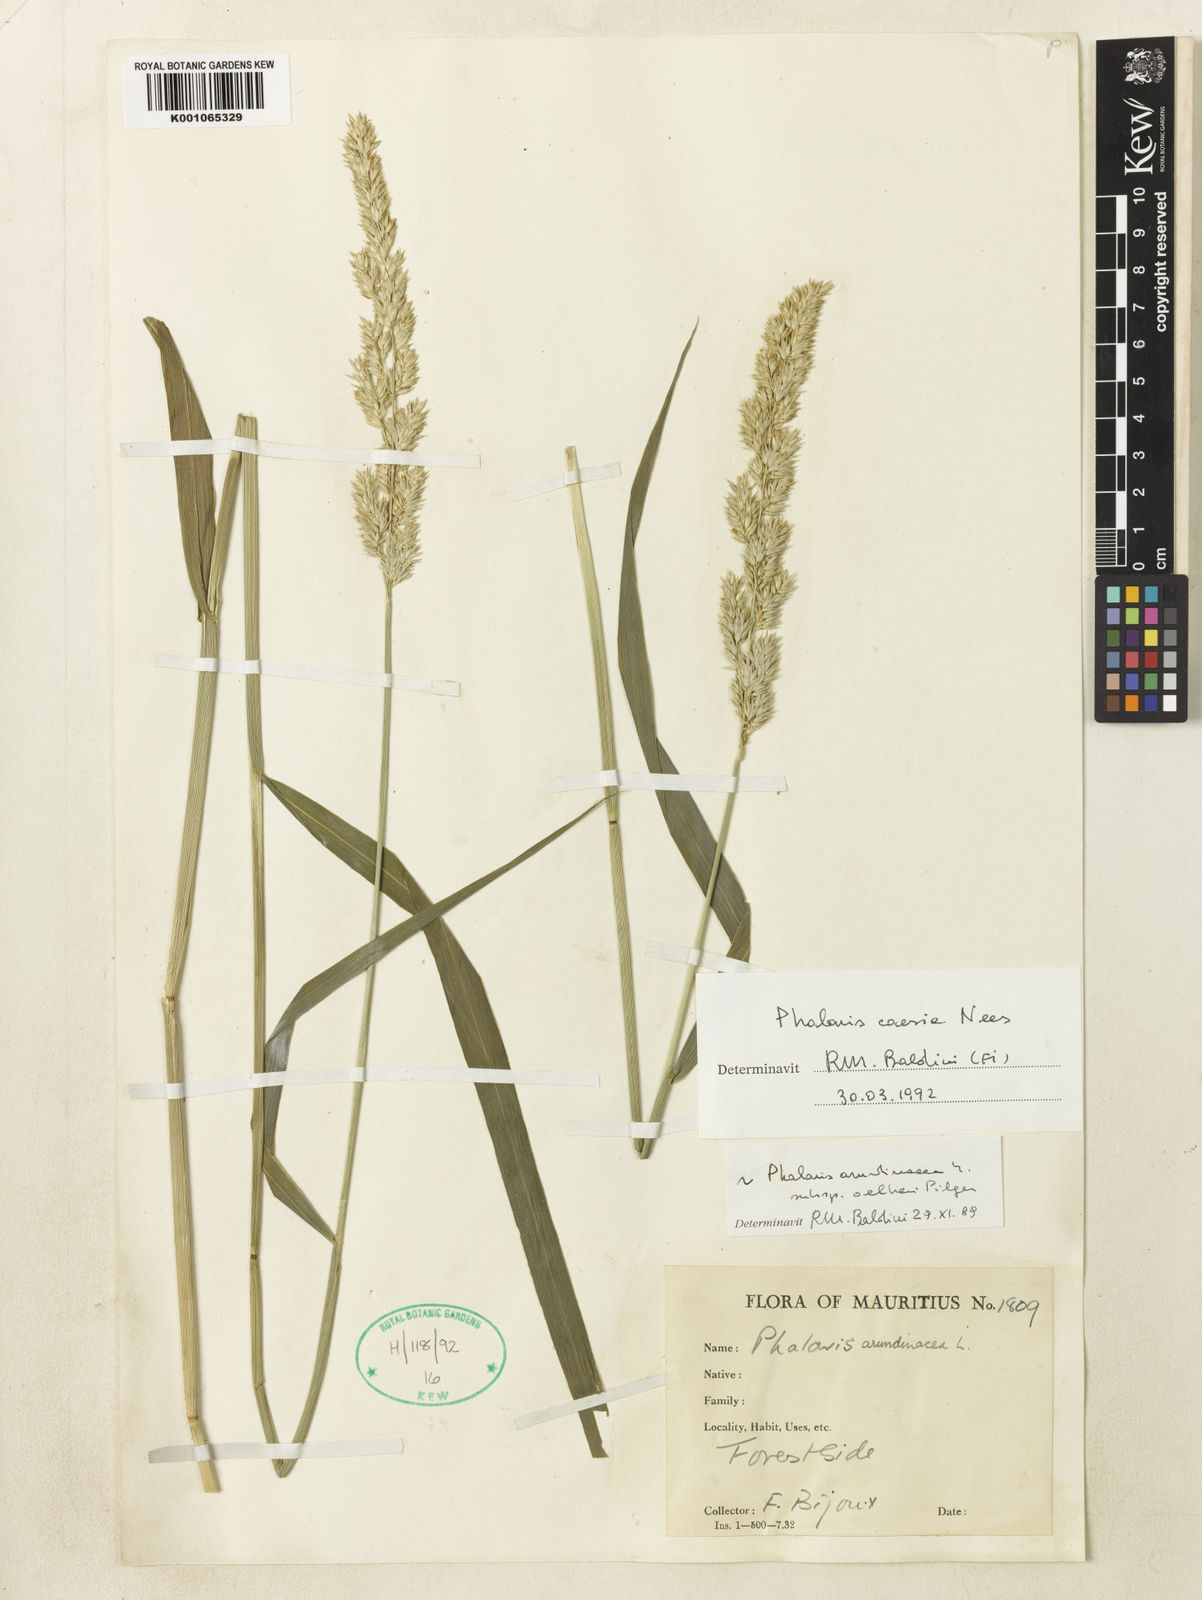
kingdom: Plantae
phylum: Tracheophyta
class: Liliopsida
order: Poales
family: Poaceae
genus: Phalaris
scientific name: Phalaris arundinacea
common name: Reed canary-grass
